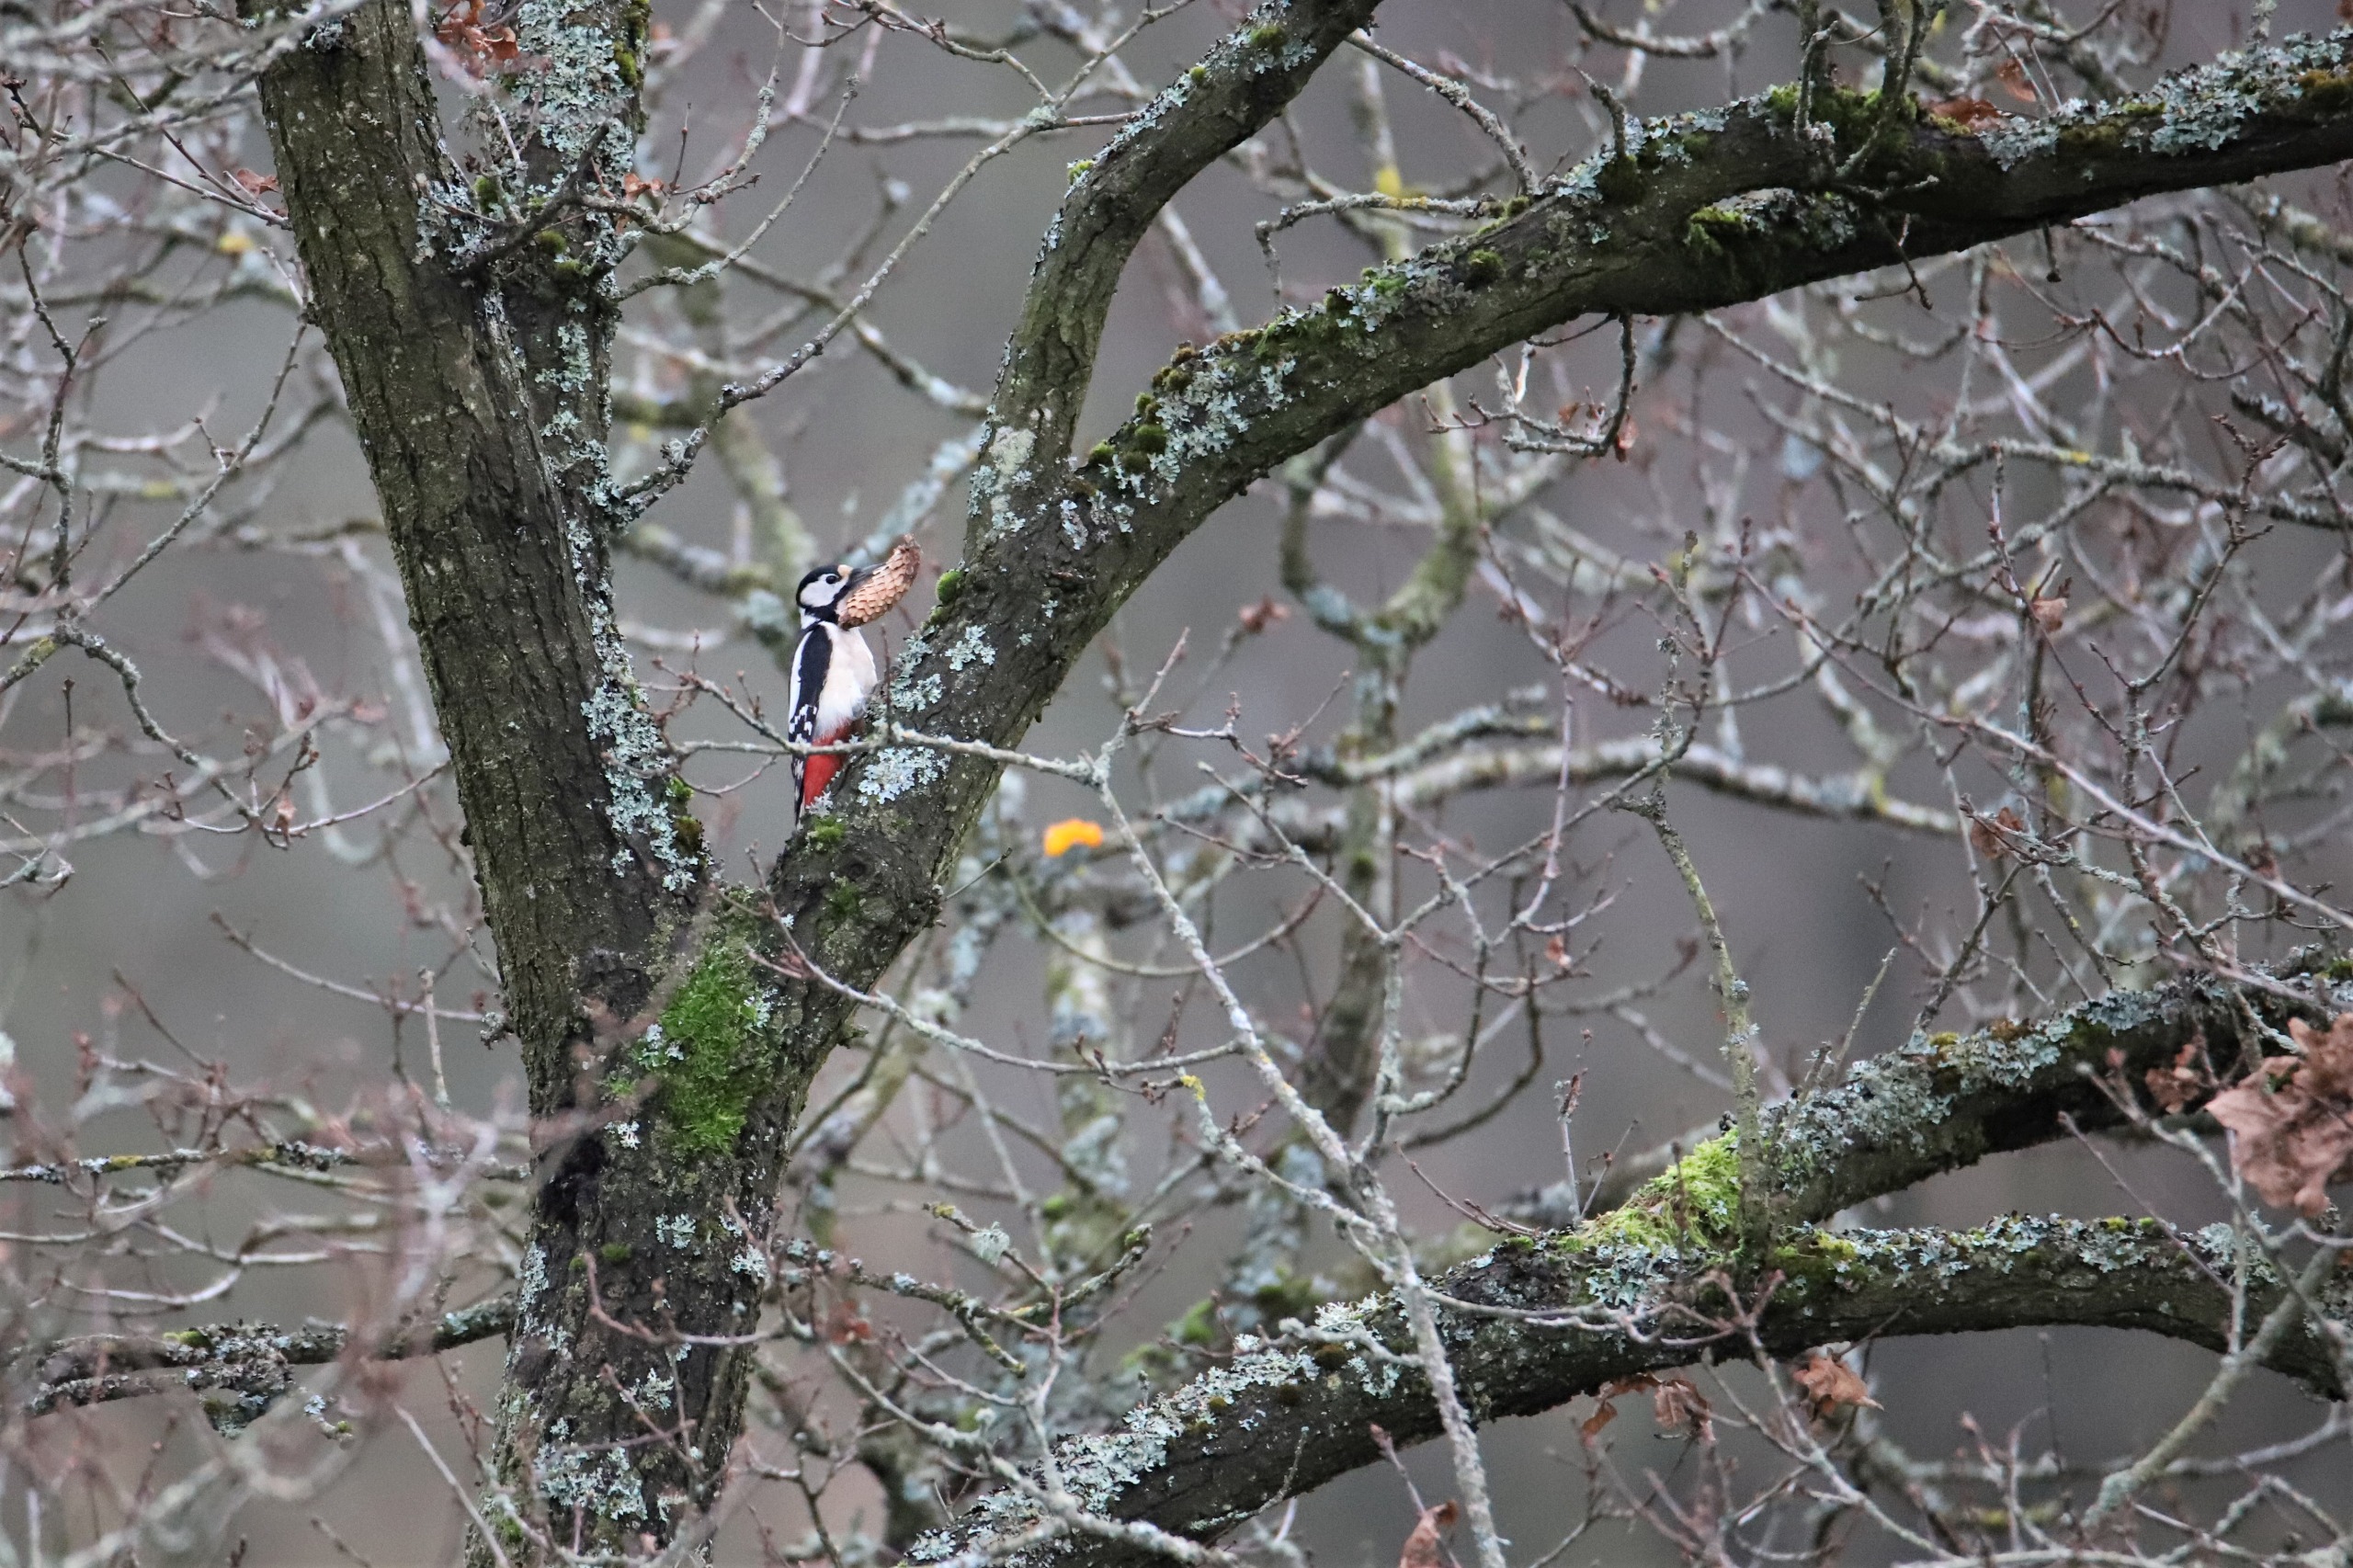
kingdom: Animalia
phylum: Chordata
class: Aves
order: Piciformes
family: Picidae
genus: Dendrocopos
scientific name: Dendrocopos major
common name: Stor flagspætte
